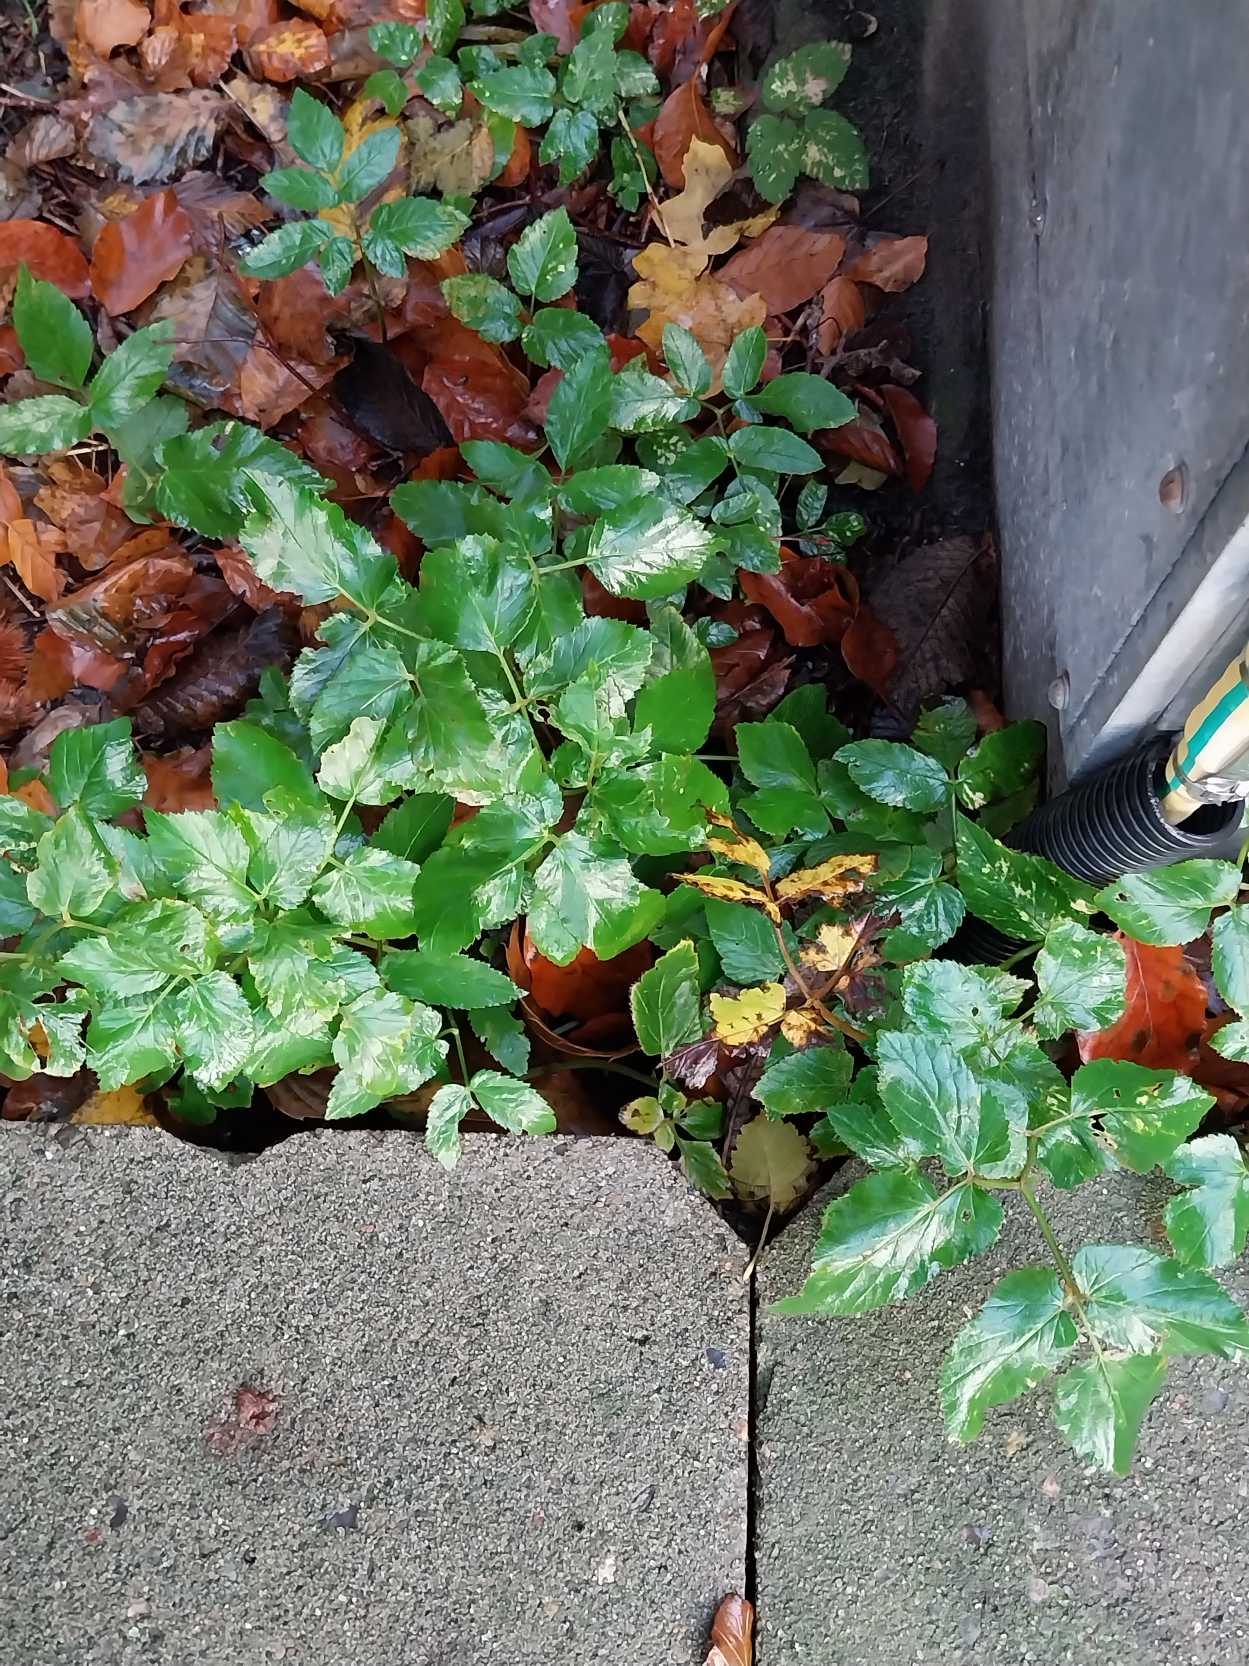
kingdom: Plantae
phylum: Tracheophyta
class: Magnoliopsida
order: Apiales
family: Apiaceae
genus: Aegopodium
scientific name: Aegopodium podagraria
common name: Skvalderkål
